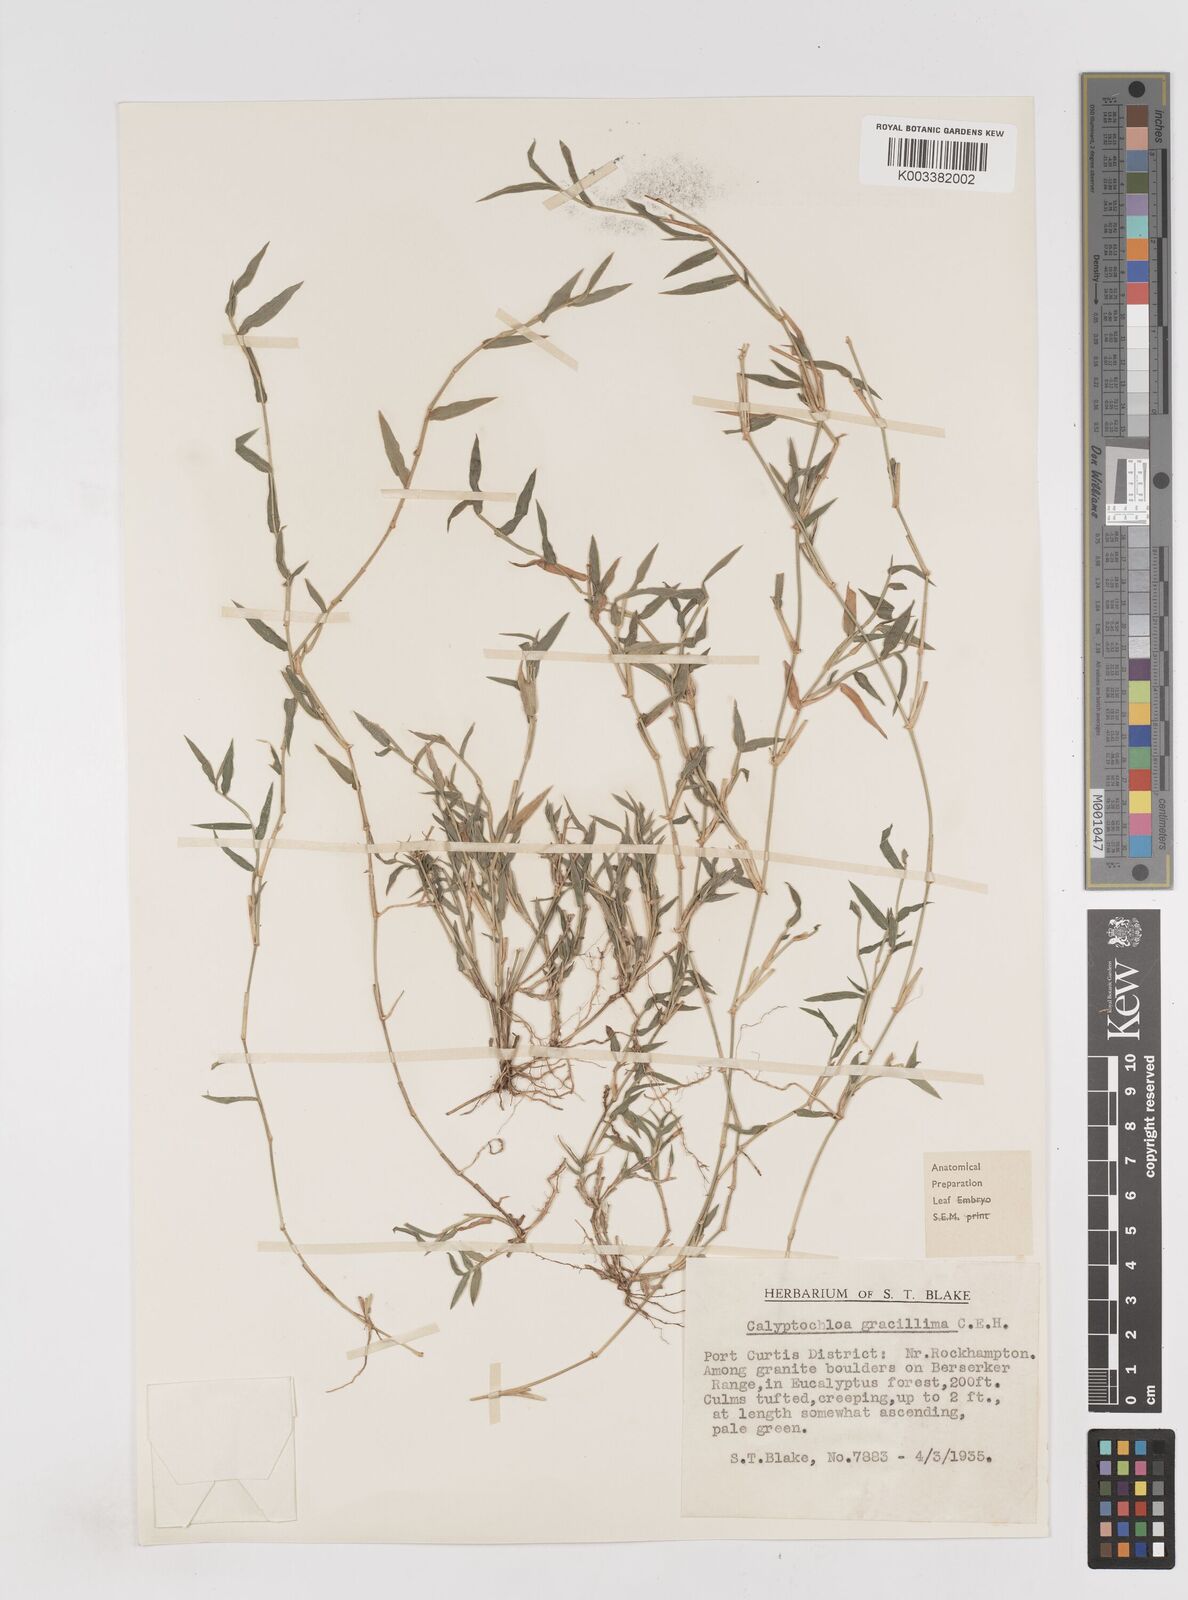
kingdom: Plantae
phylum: Tracheophyta
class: Liliopsida
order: Poales
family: Poaceae
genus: Calyptochloa
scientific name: Calyptochloa gracillima
